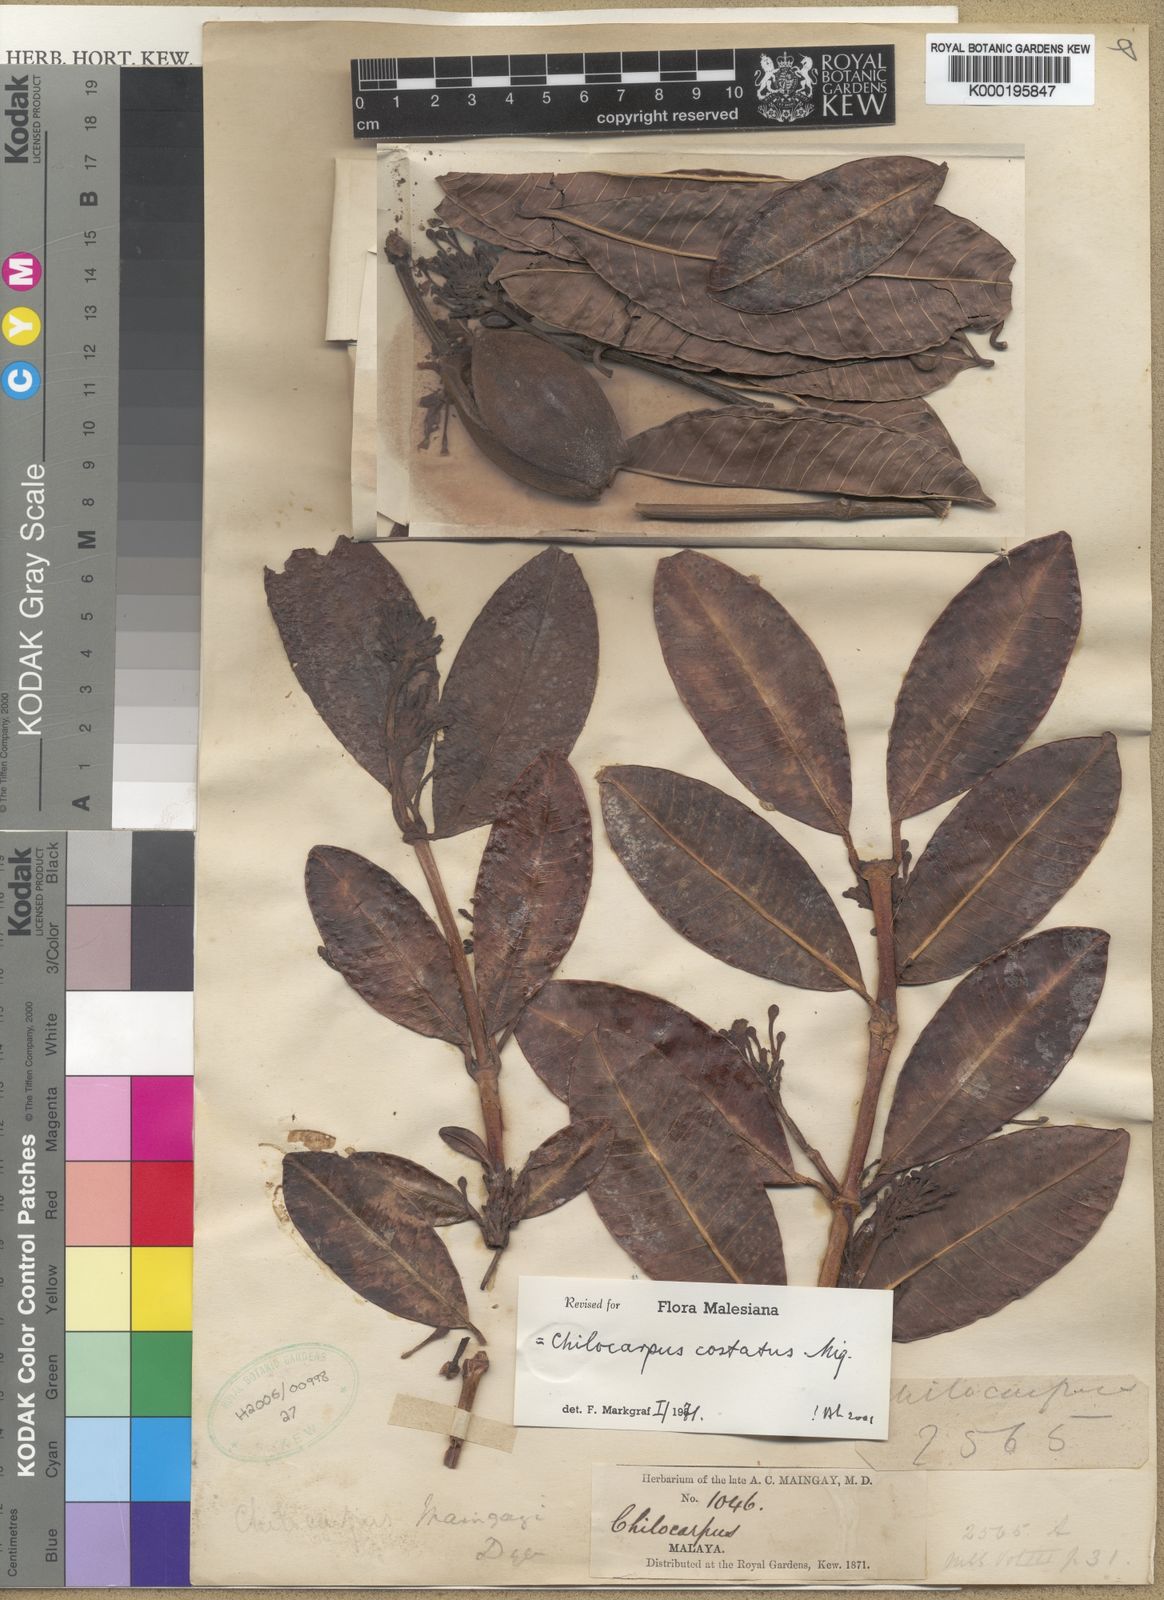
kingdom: Plantae
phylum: Tracheophyta
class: Magnoliopsida
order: Gentianales
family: Apocynaceae
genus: Chilocarpus
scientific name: Chilocarpus costatus
